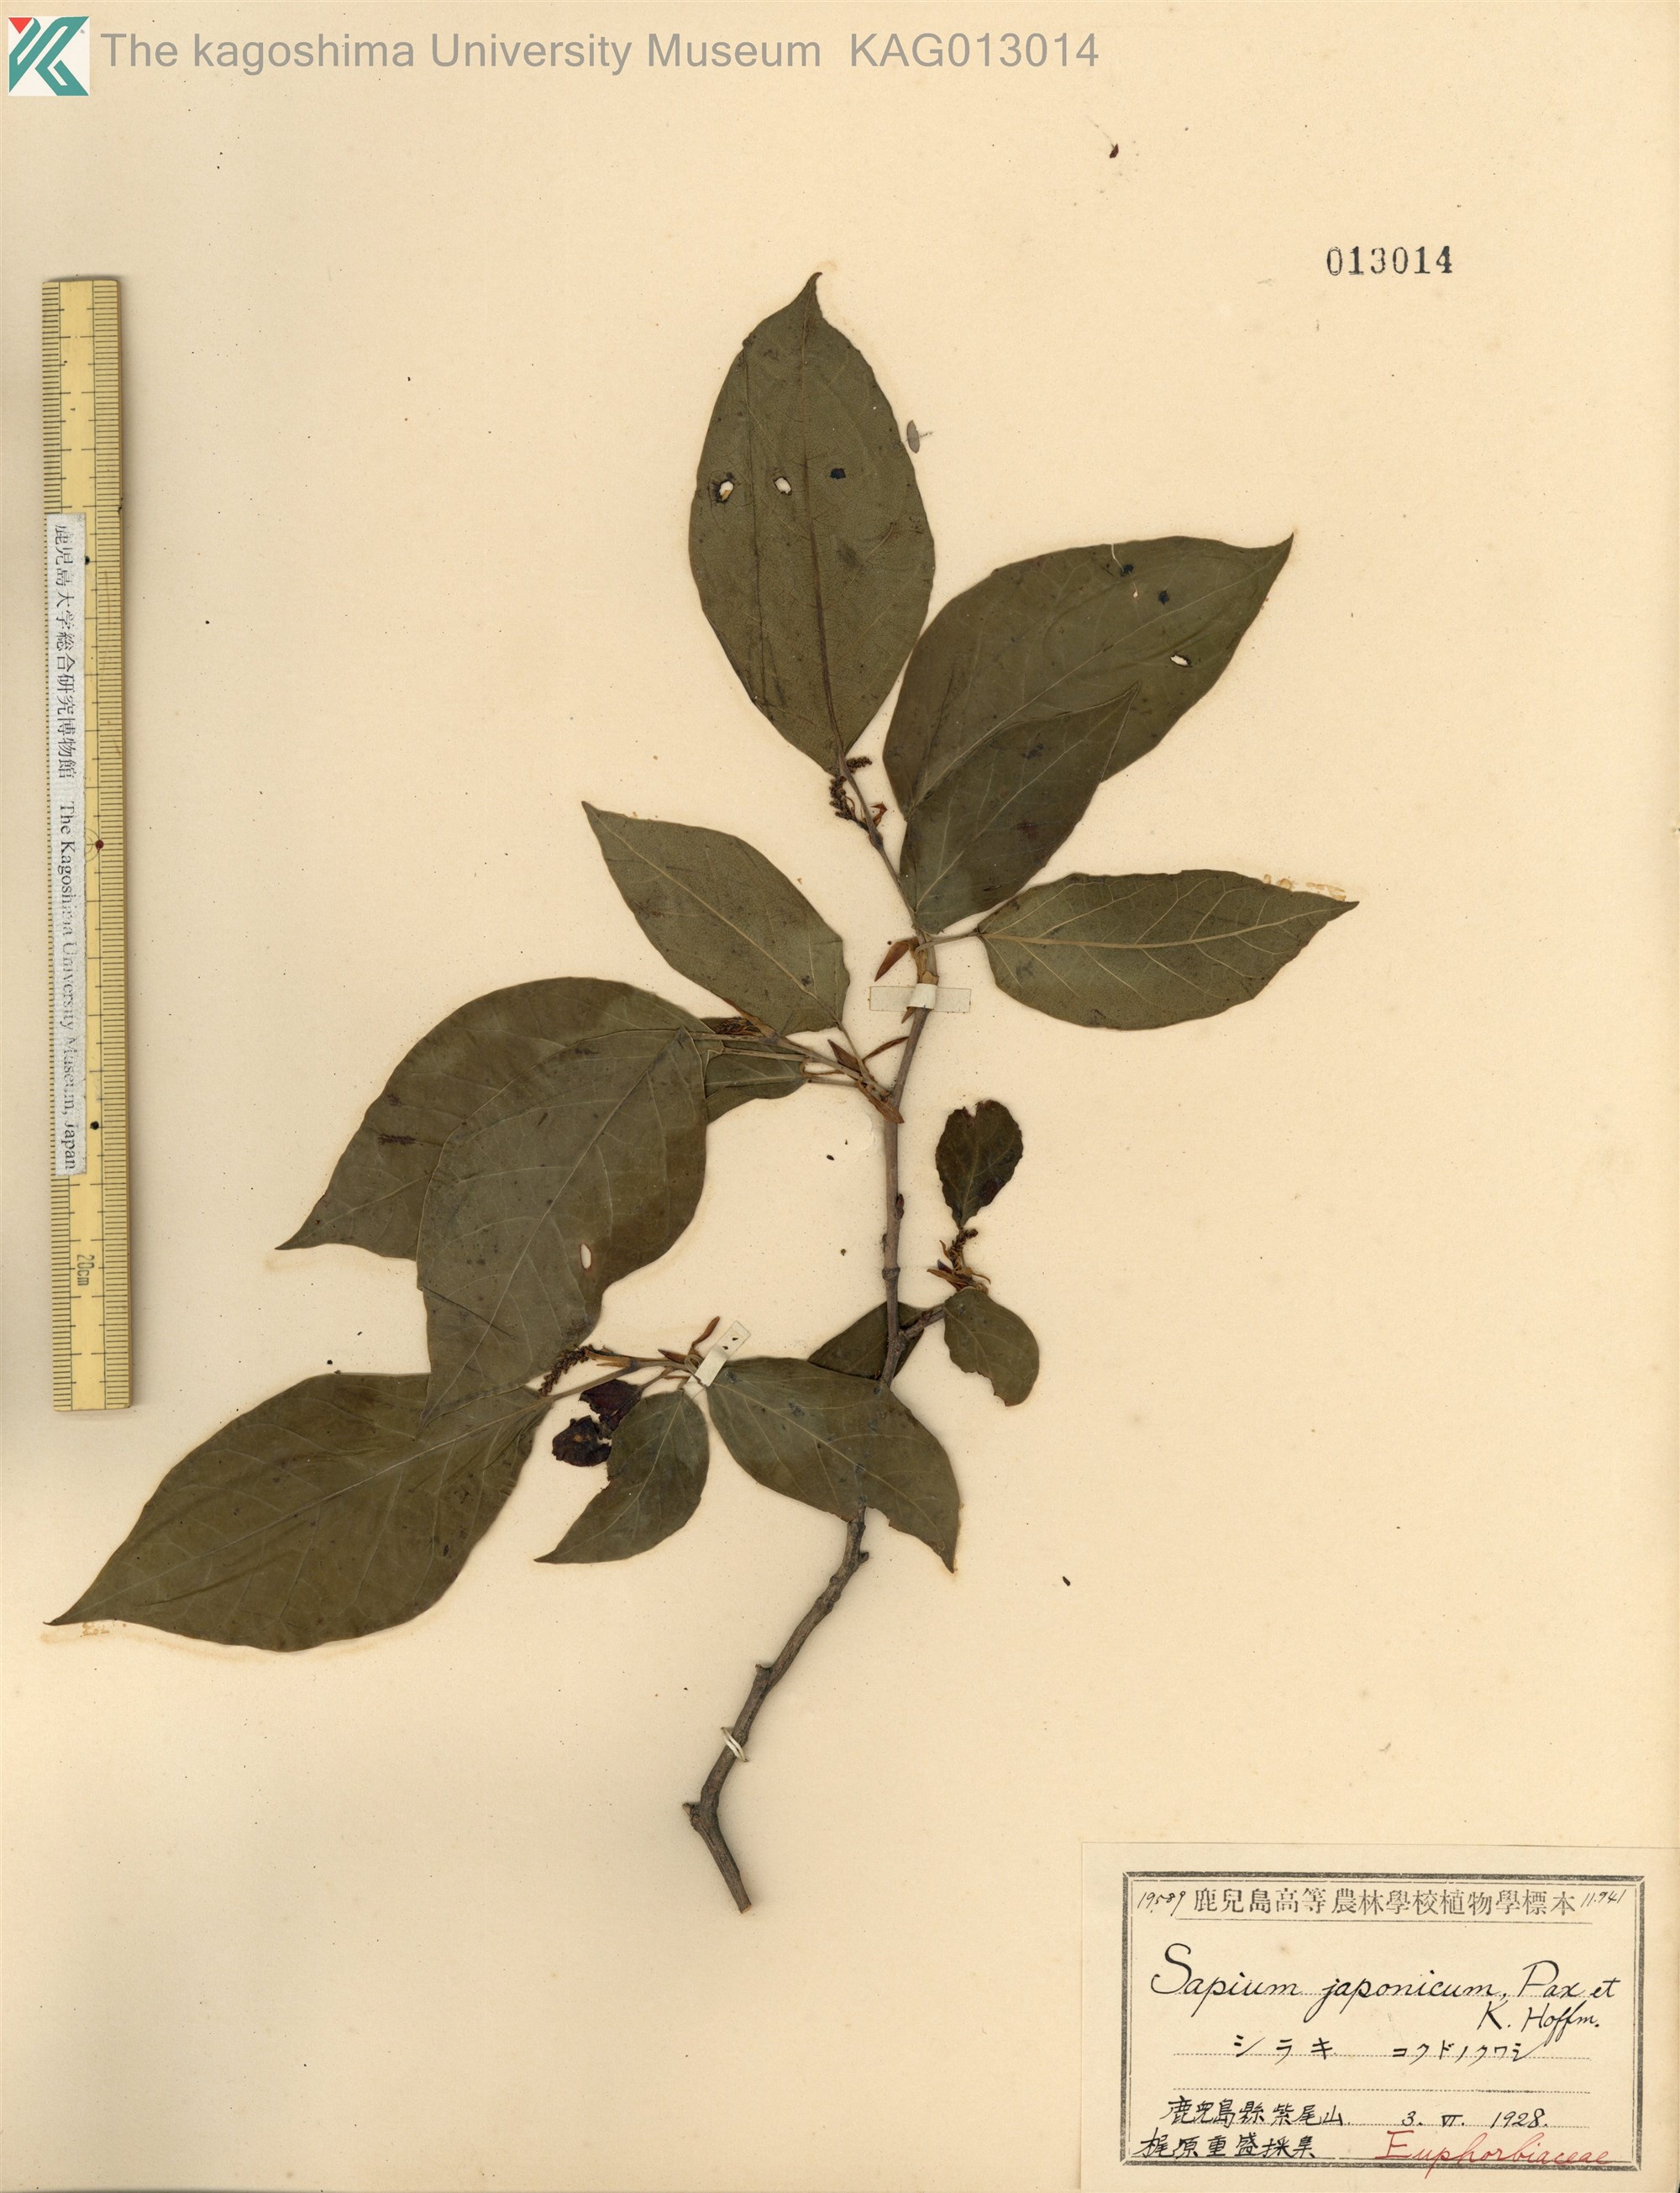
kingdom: Plantae
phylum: Tracheophyta
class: Magnoliopsida
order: Malpighiales
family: Euphorbiaceae
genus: Neoshirakia
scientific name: Neoshirakia japonica
